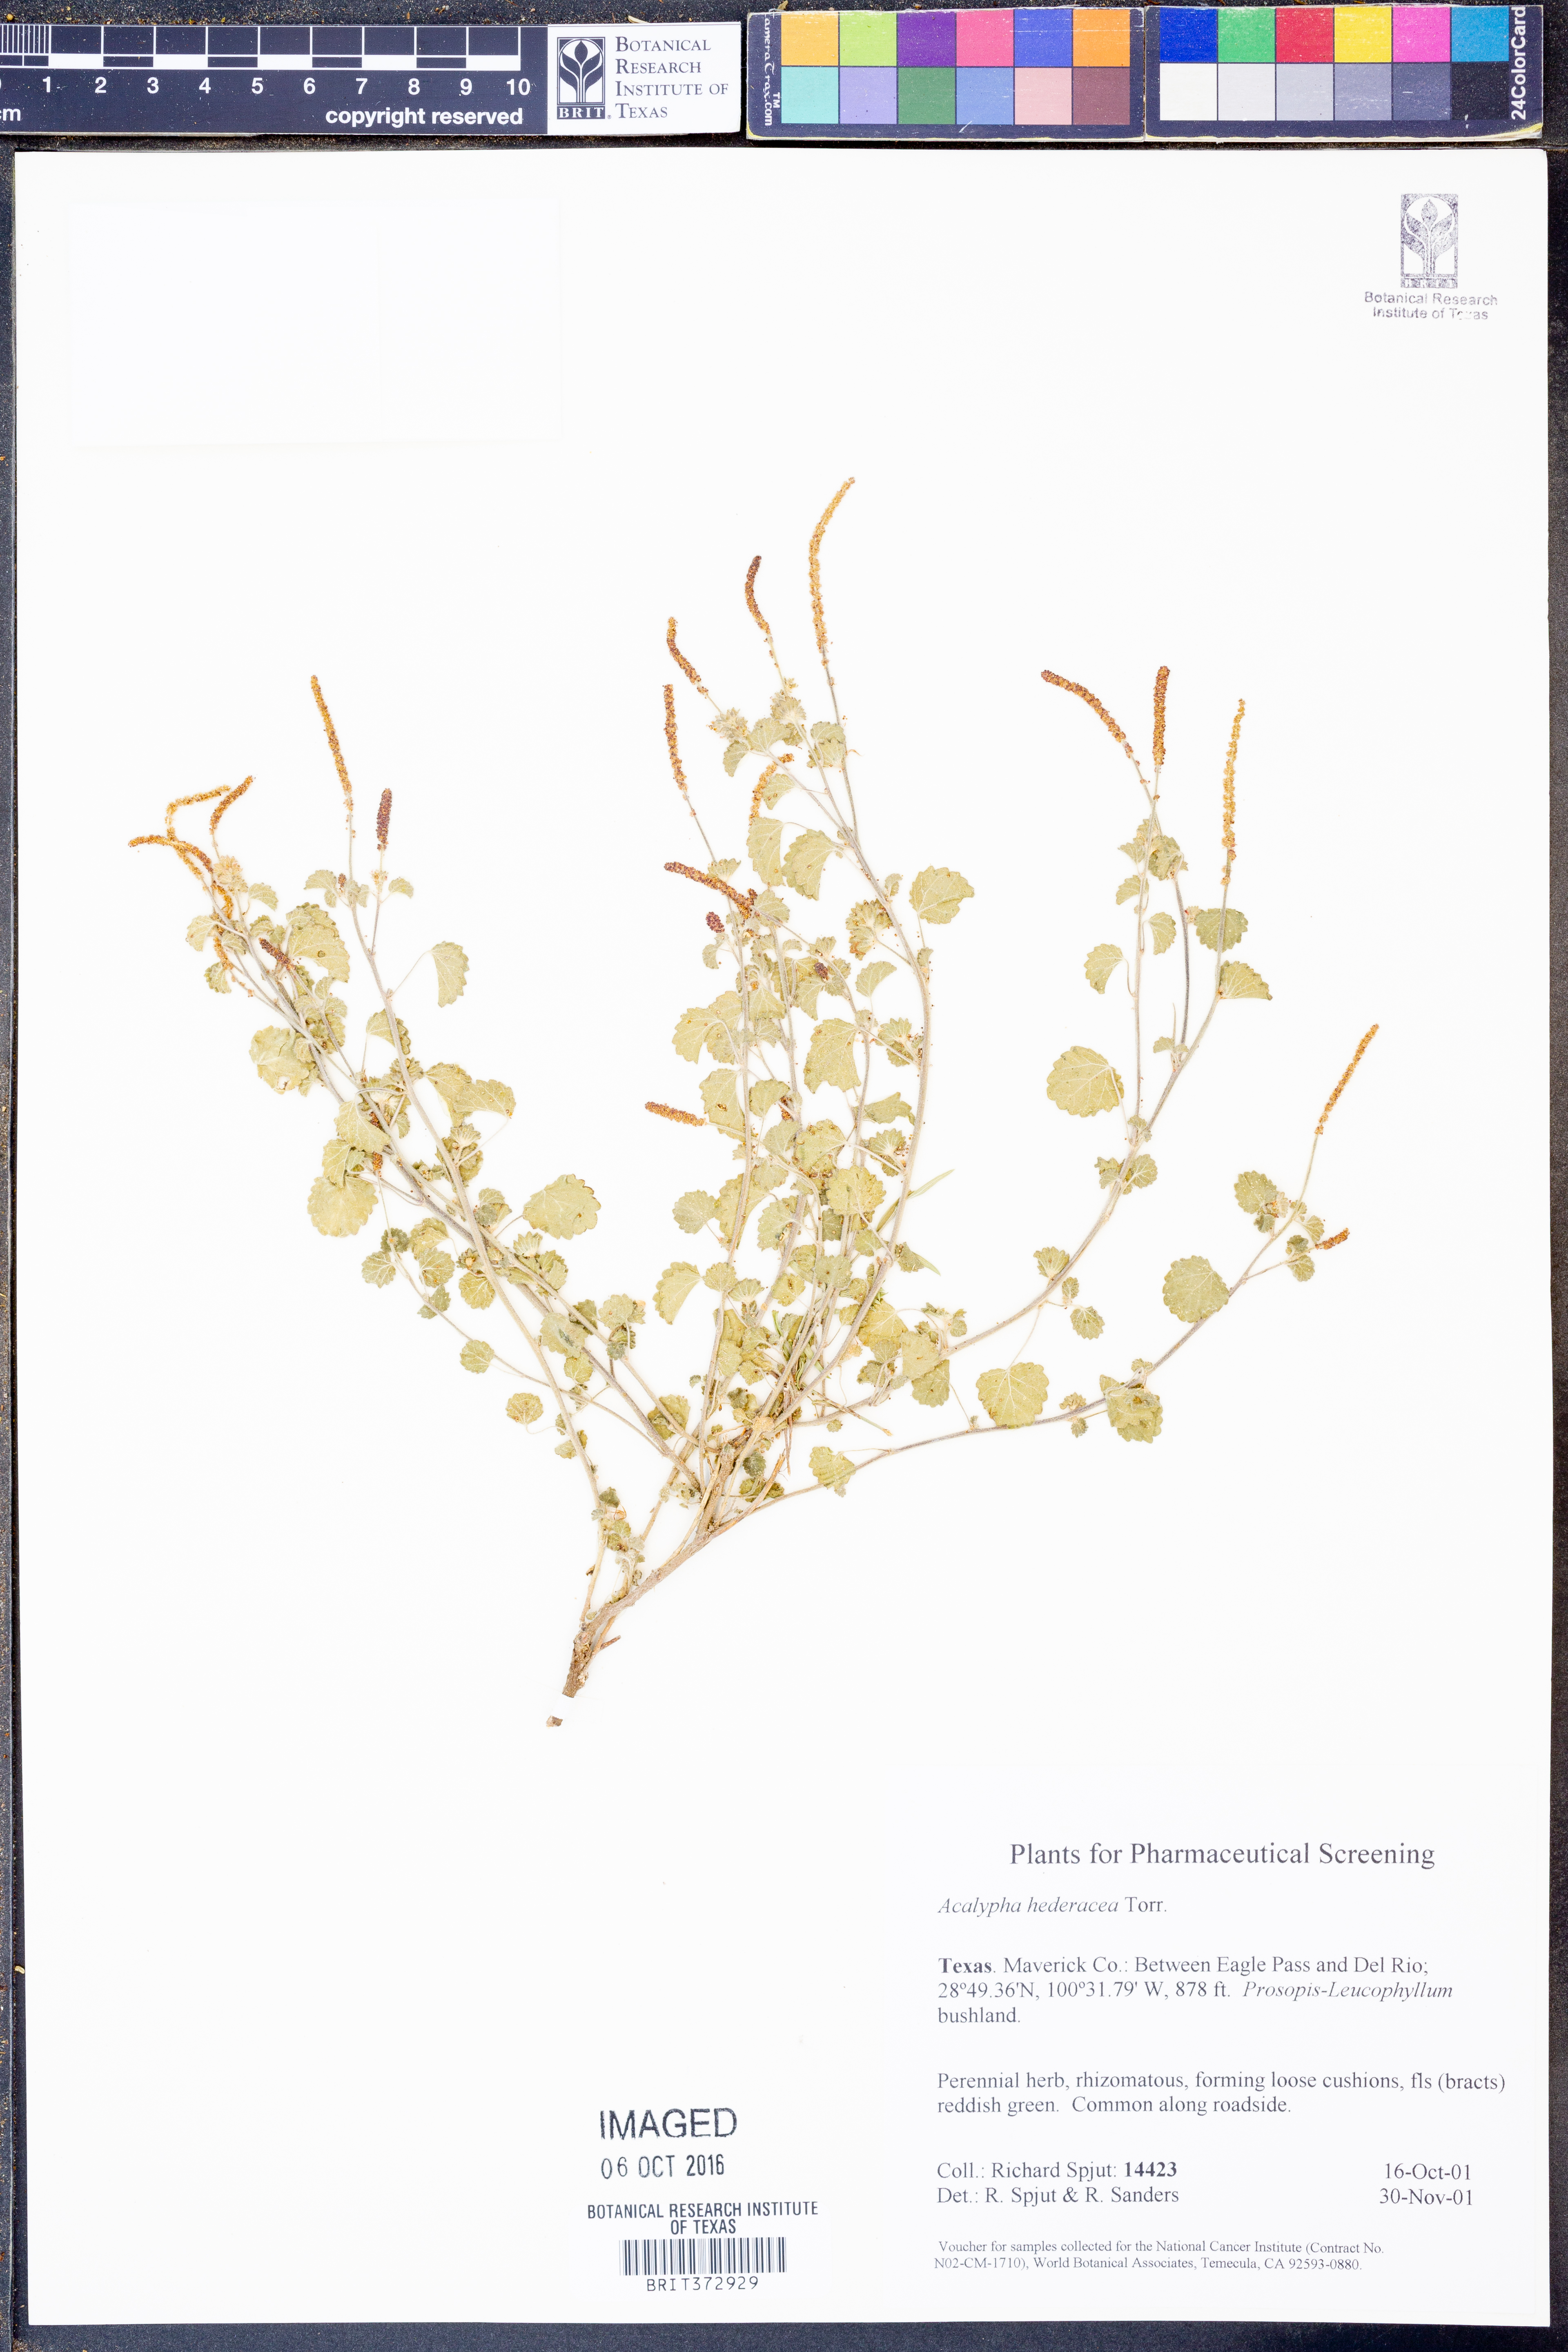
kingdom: Plantae
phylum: Tracheophyta
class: Magnoliopsida
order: Malpighiales
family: Euphorbiaceae
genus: Acalypha
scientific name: Acalypha monostachya
